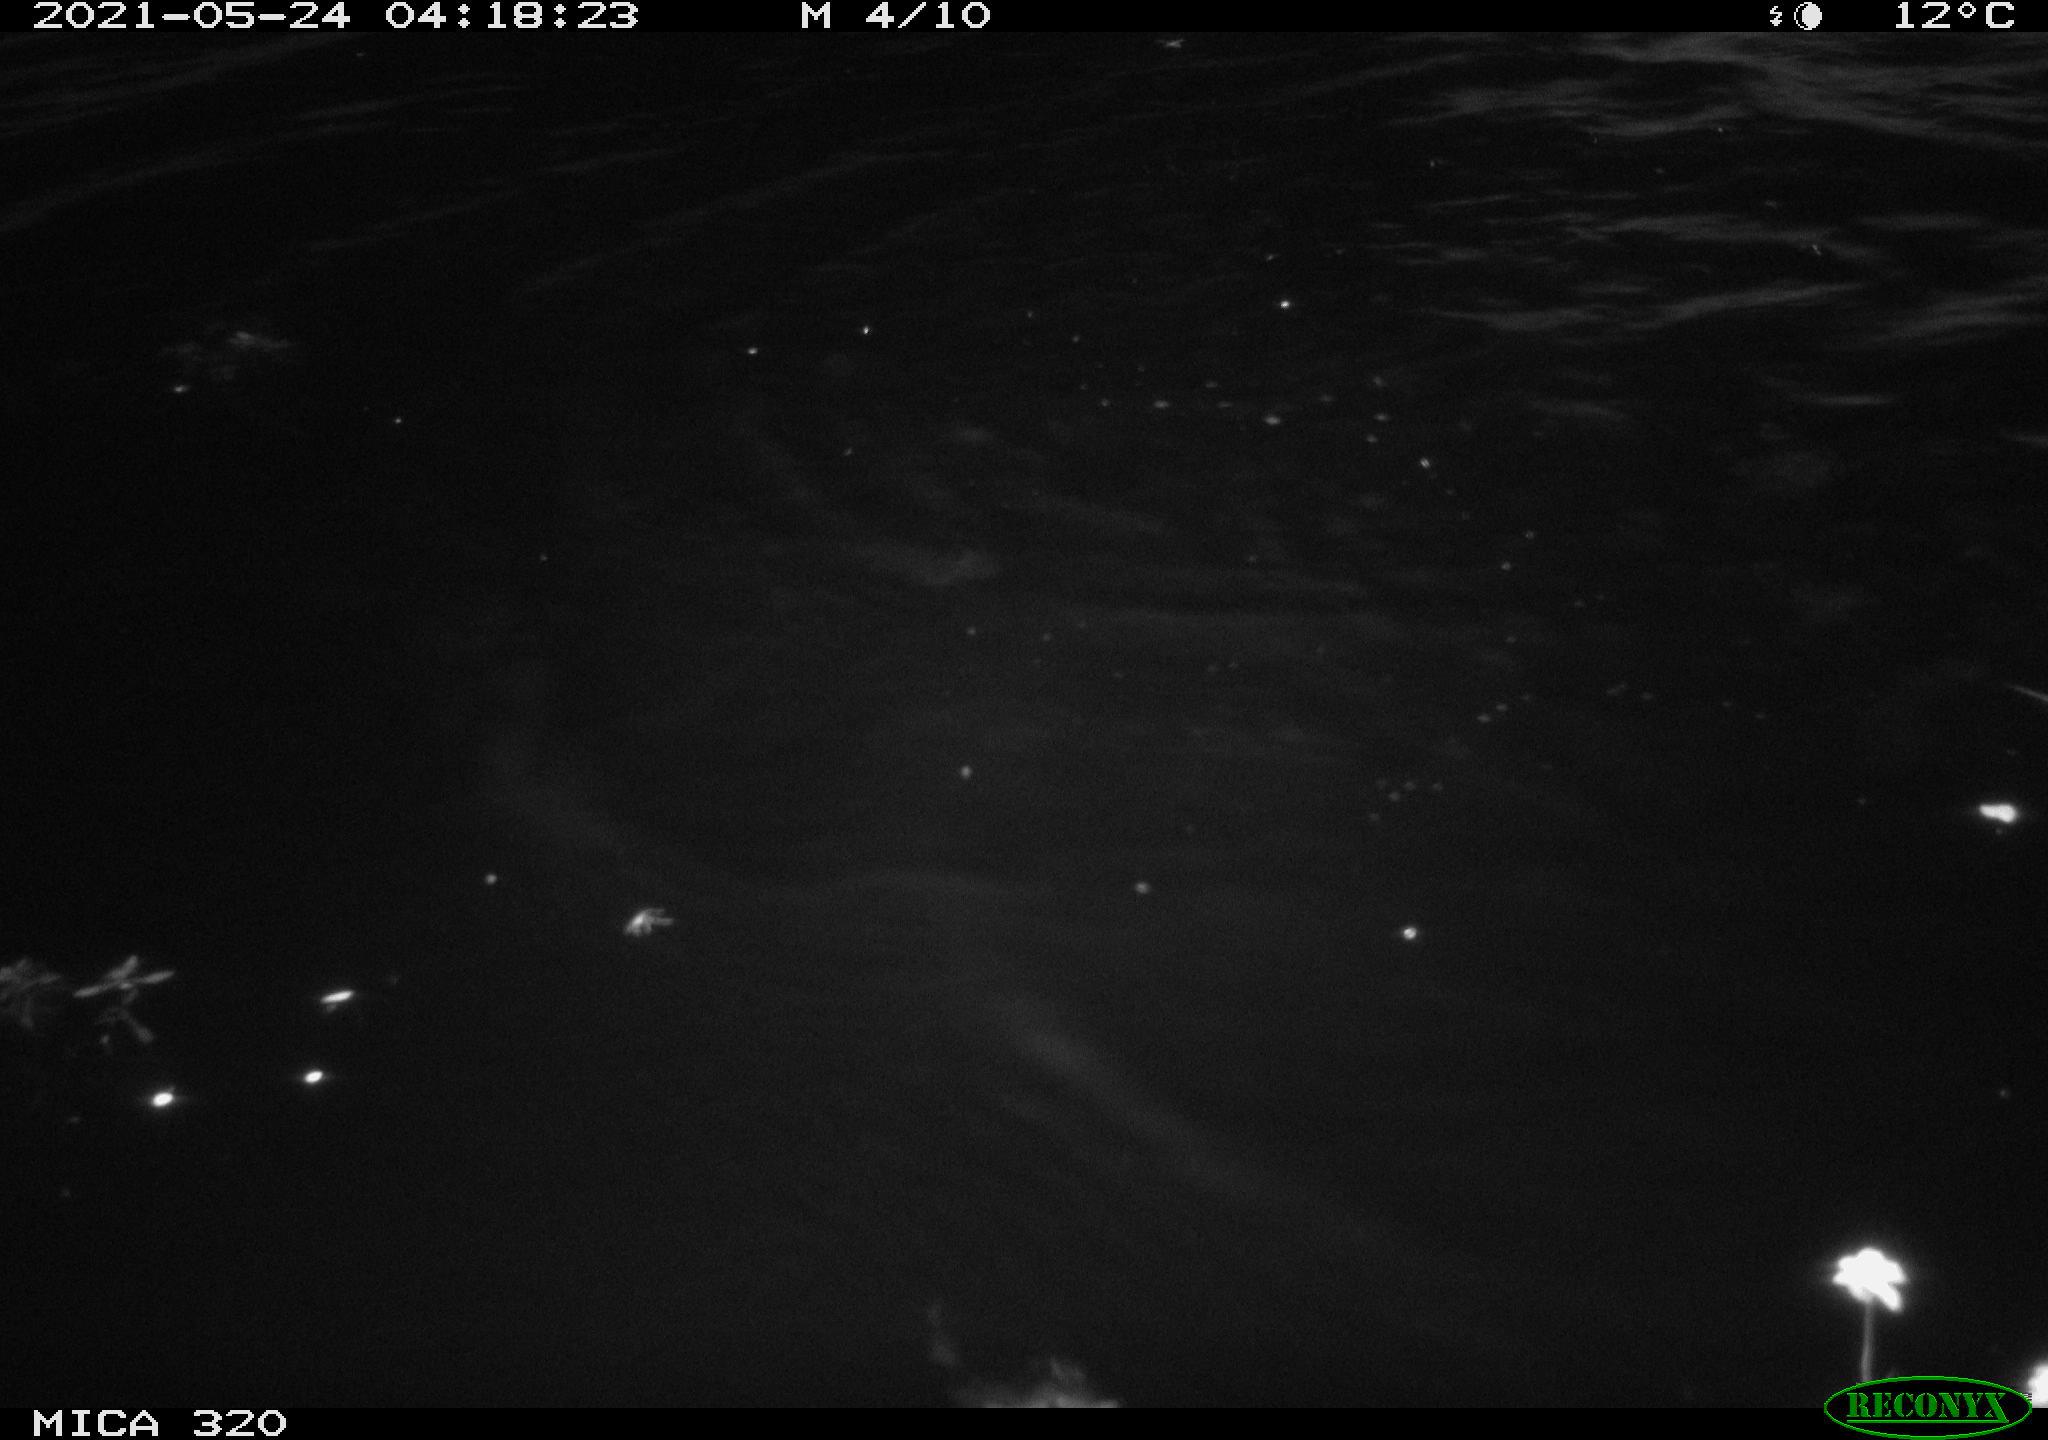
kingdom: Animalia
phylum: Chordata
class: Aves
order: Anseriformes
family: Anatidae
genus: Anas
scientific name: Anas platyrhynchos
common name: Mallard
